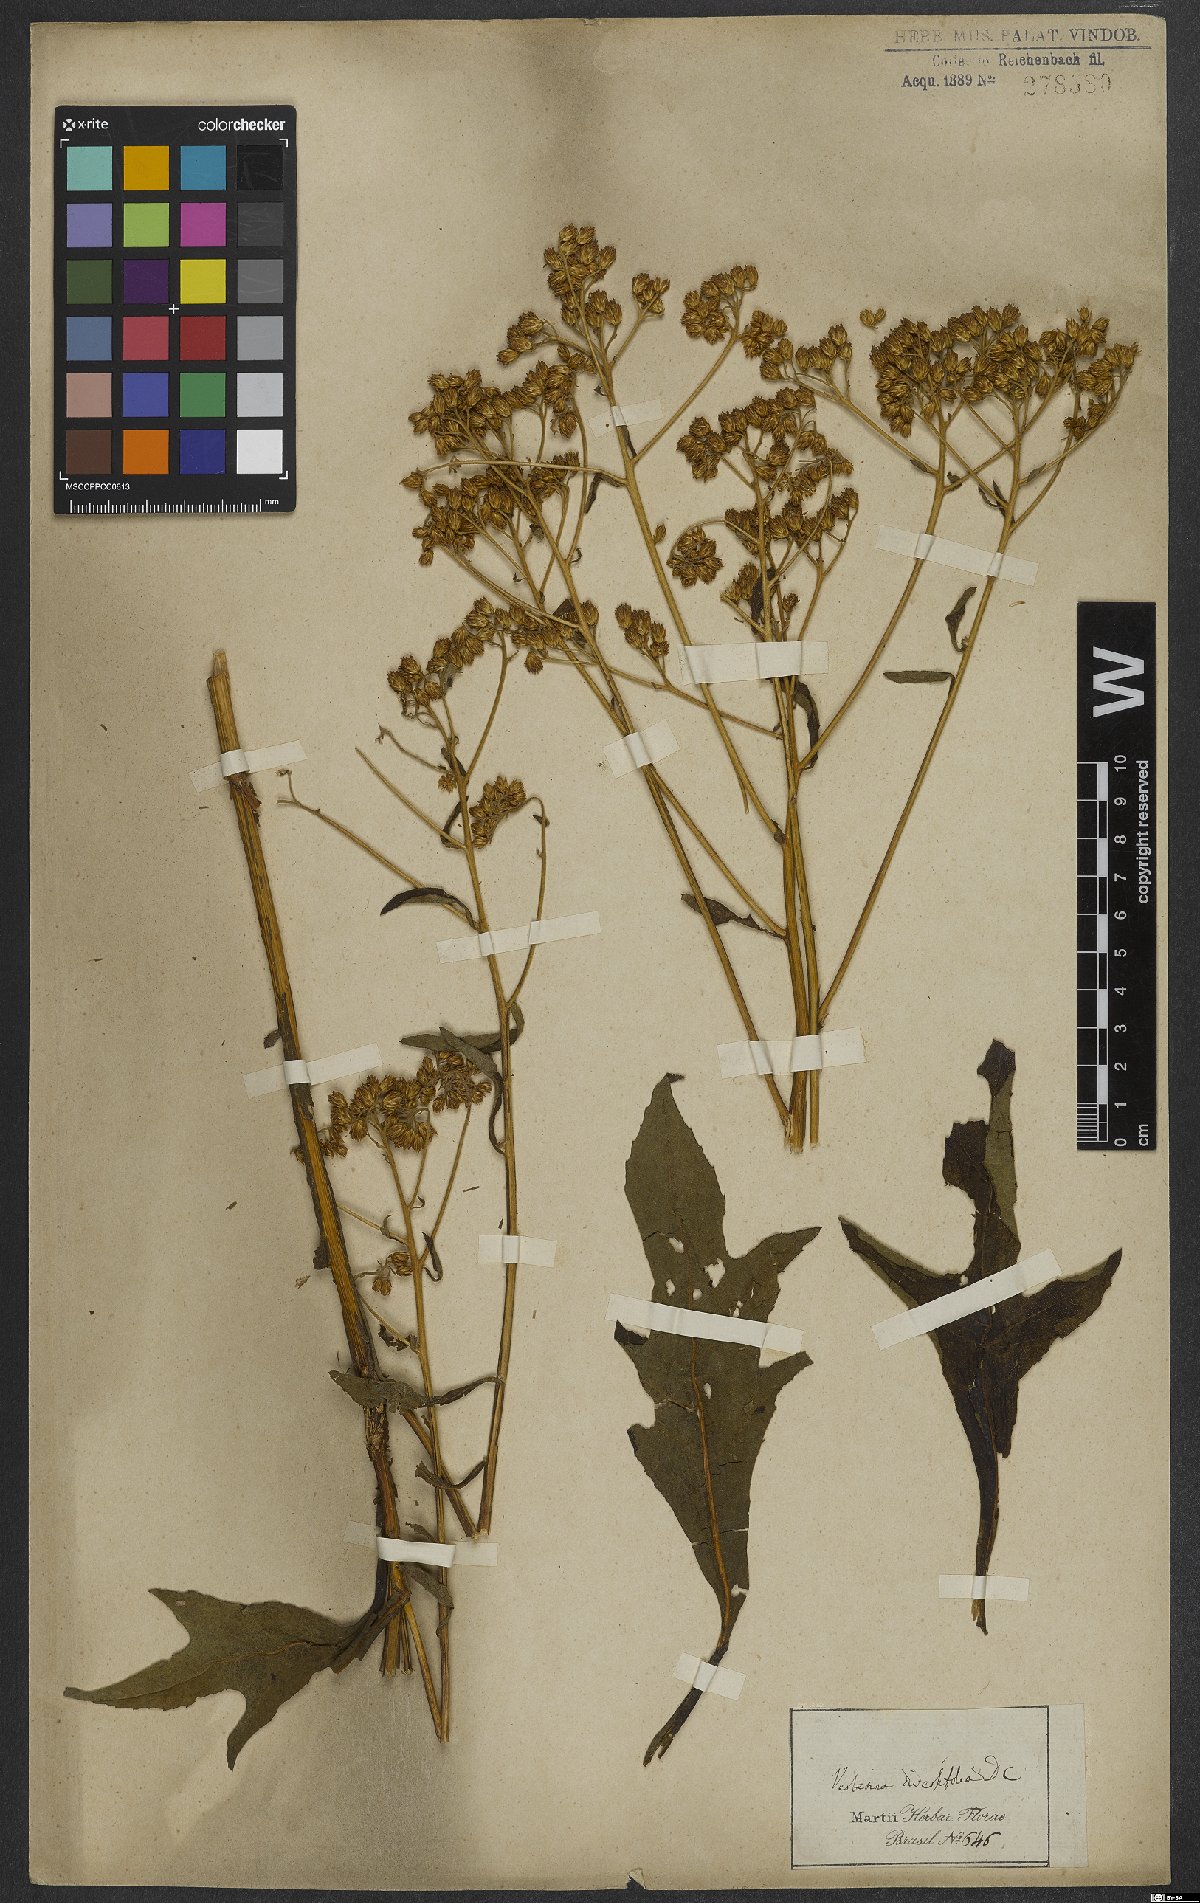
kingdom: Plantae
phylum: Tracheophyta
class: Magnoliopsida
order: Asterales
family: Asteraceae
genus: Vernonia
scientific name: Vernonia diversifolia
